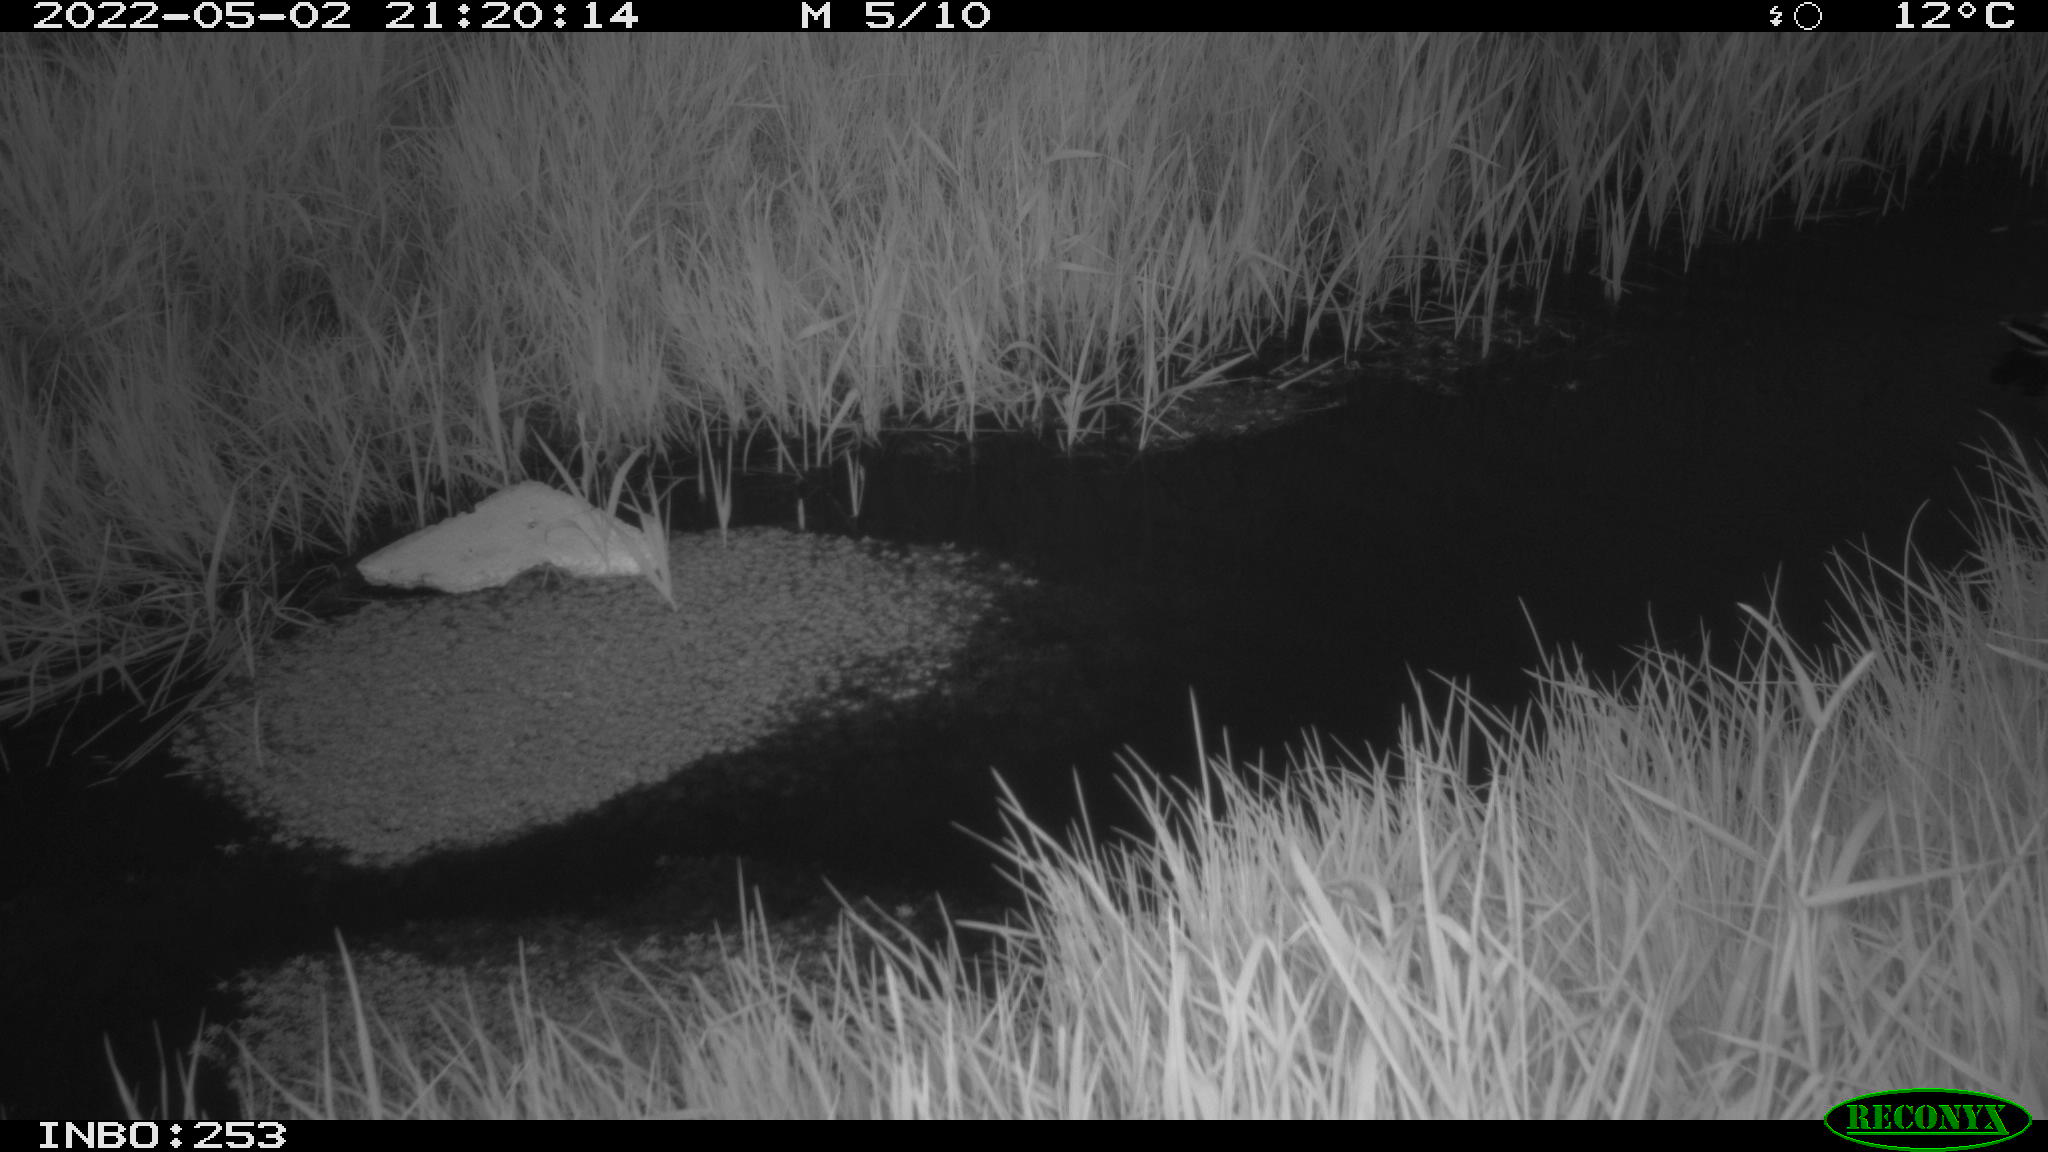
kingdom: Animalia
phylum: Chordata
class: Aves
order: Anseriformes
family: Anatidae
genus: Anas
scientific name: Anas platyrhynchos
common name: Mallard
